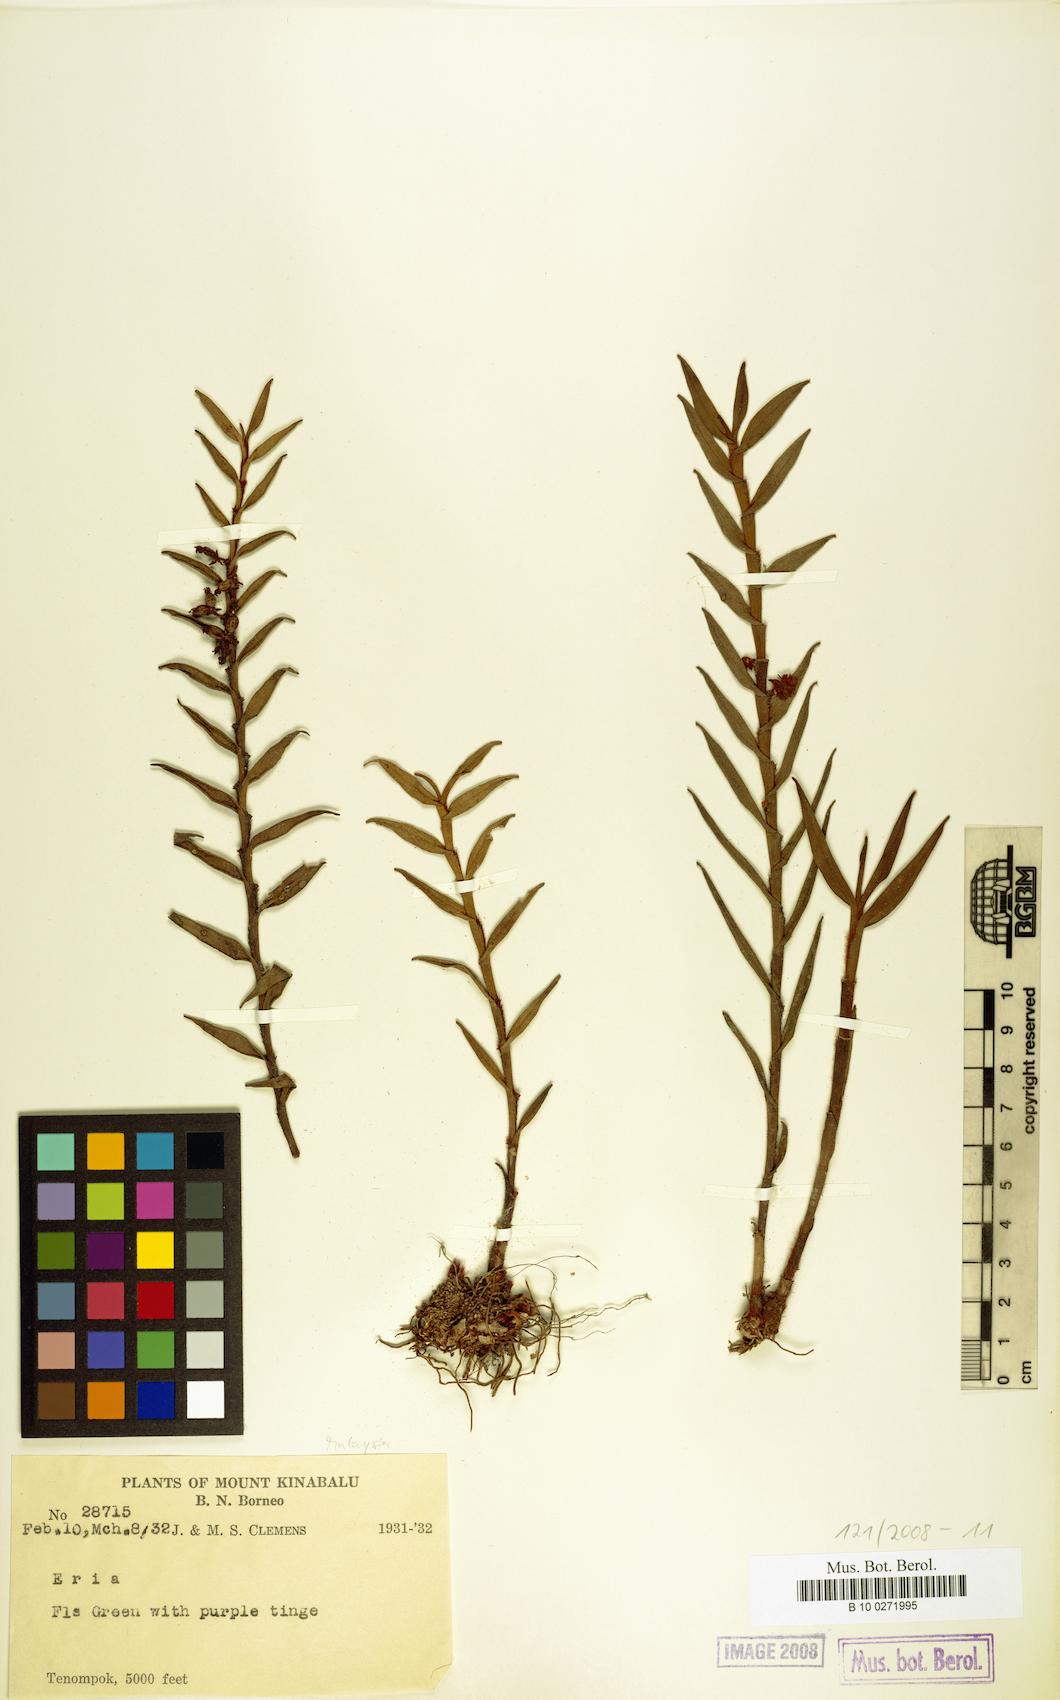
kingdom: Plantae
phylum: Tracheophyta
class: Liliopsida
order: Asparagales
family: Orchidaceae
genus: Eria
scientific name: Eria
